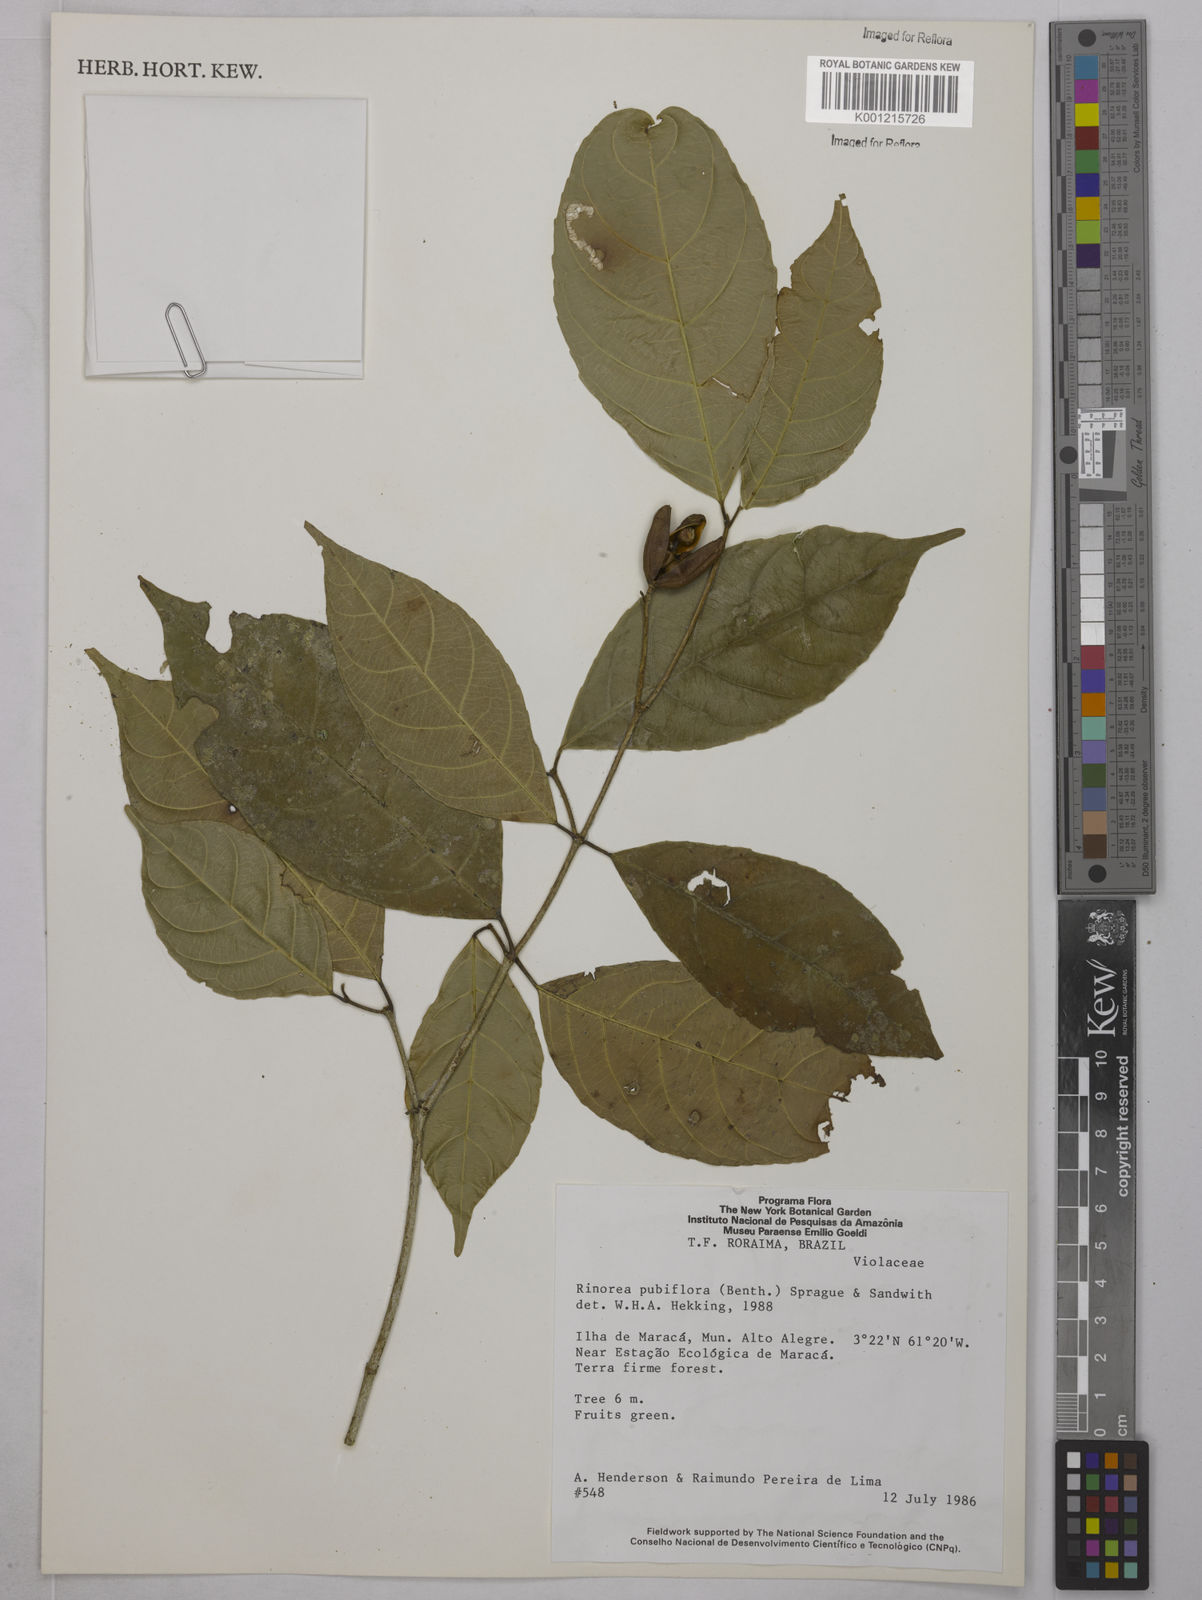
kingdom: Plantae
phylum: Tracheophyta
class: Magnoliopsida
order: Malpighiales
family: Violaceae
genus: Rinorea
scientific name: Rinorea pubiflora
